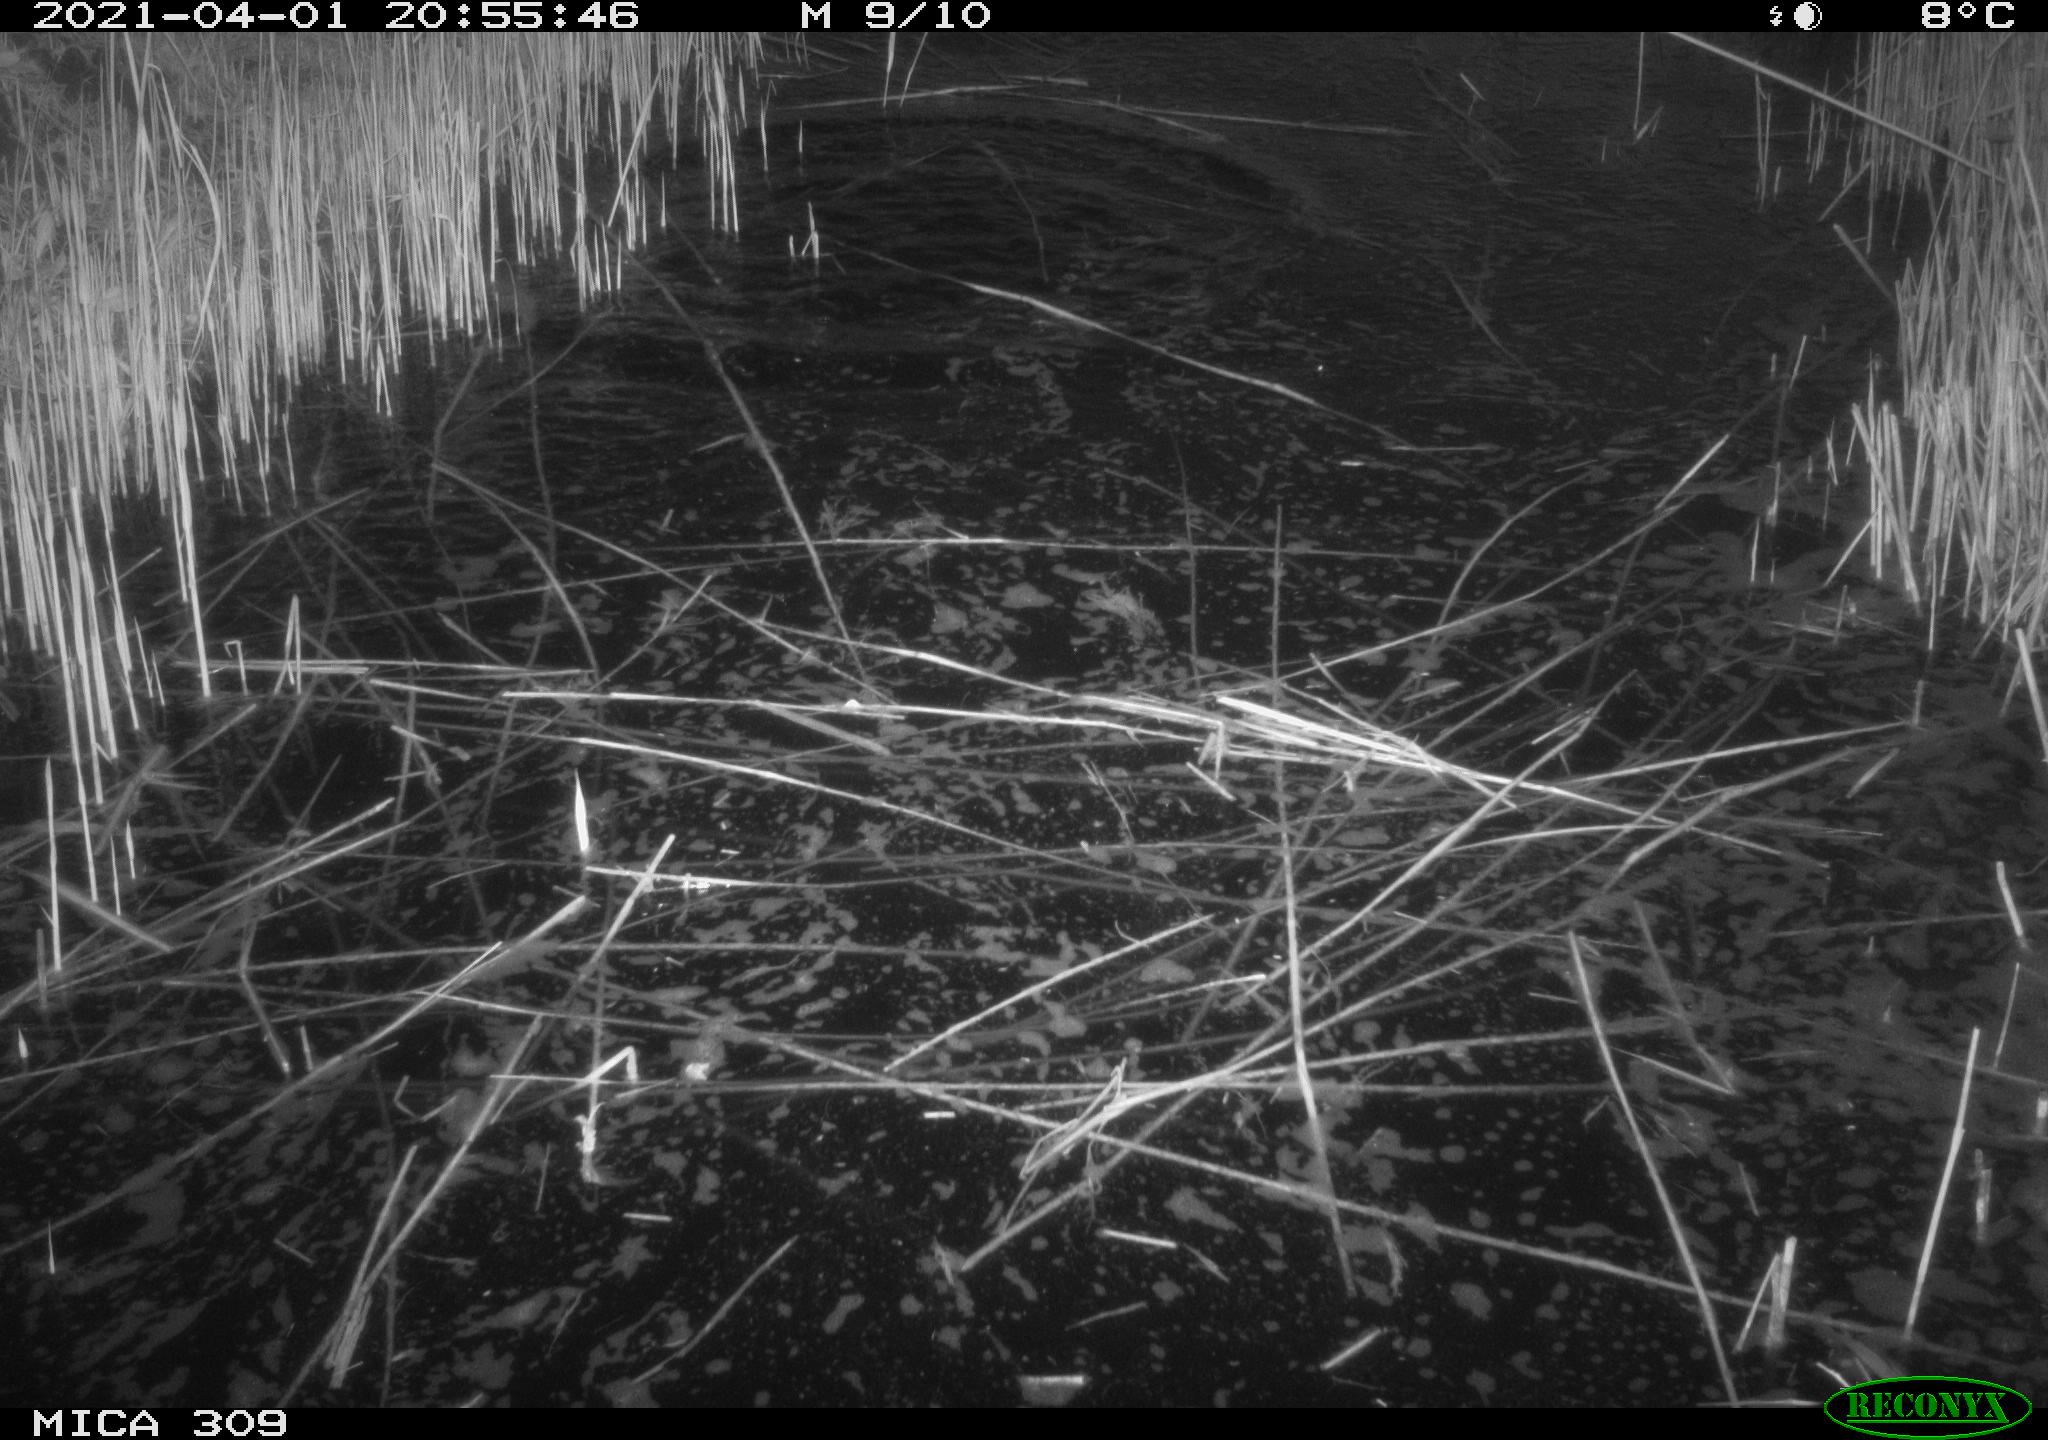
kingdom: Animalia
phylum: Chordata
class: Aves
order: Anseriformes
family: Anatidae
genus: Anas
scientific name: Anas platyrhynchos
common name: Mallard
